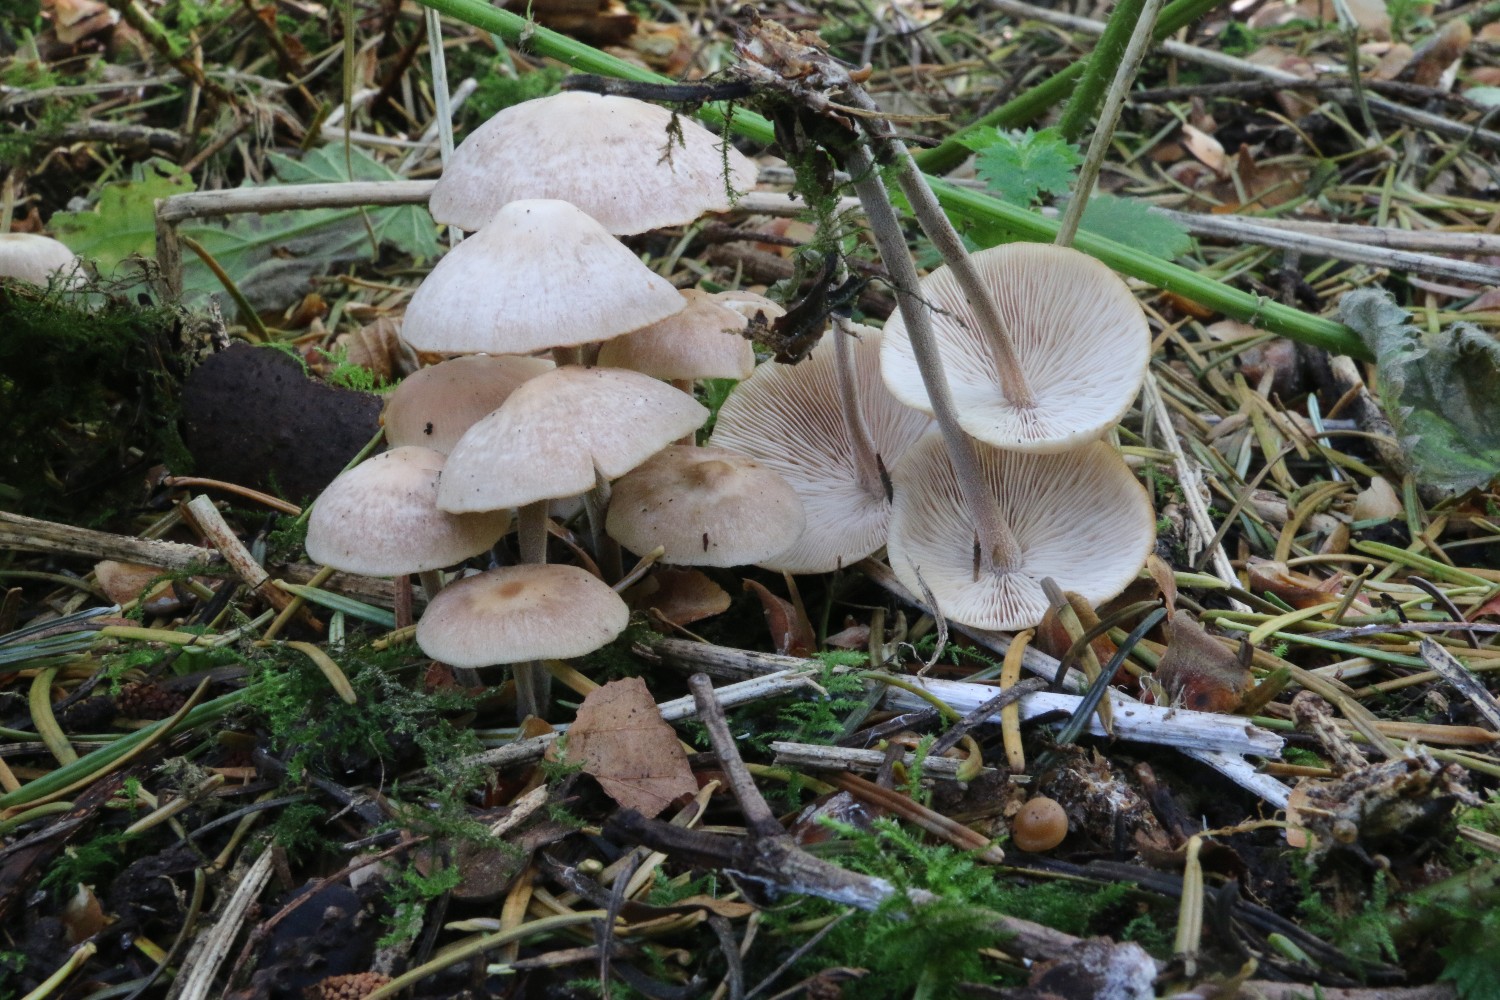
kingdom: Fungi
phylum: Basidiomycota
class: Agaricomycetes
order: Agaricales
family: Omphalotaceae
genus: Collybiopsis
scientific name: Collybiopsis confluens
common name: knippe-fladhat
